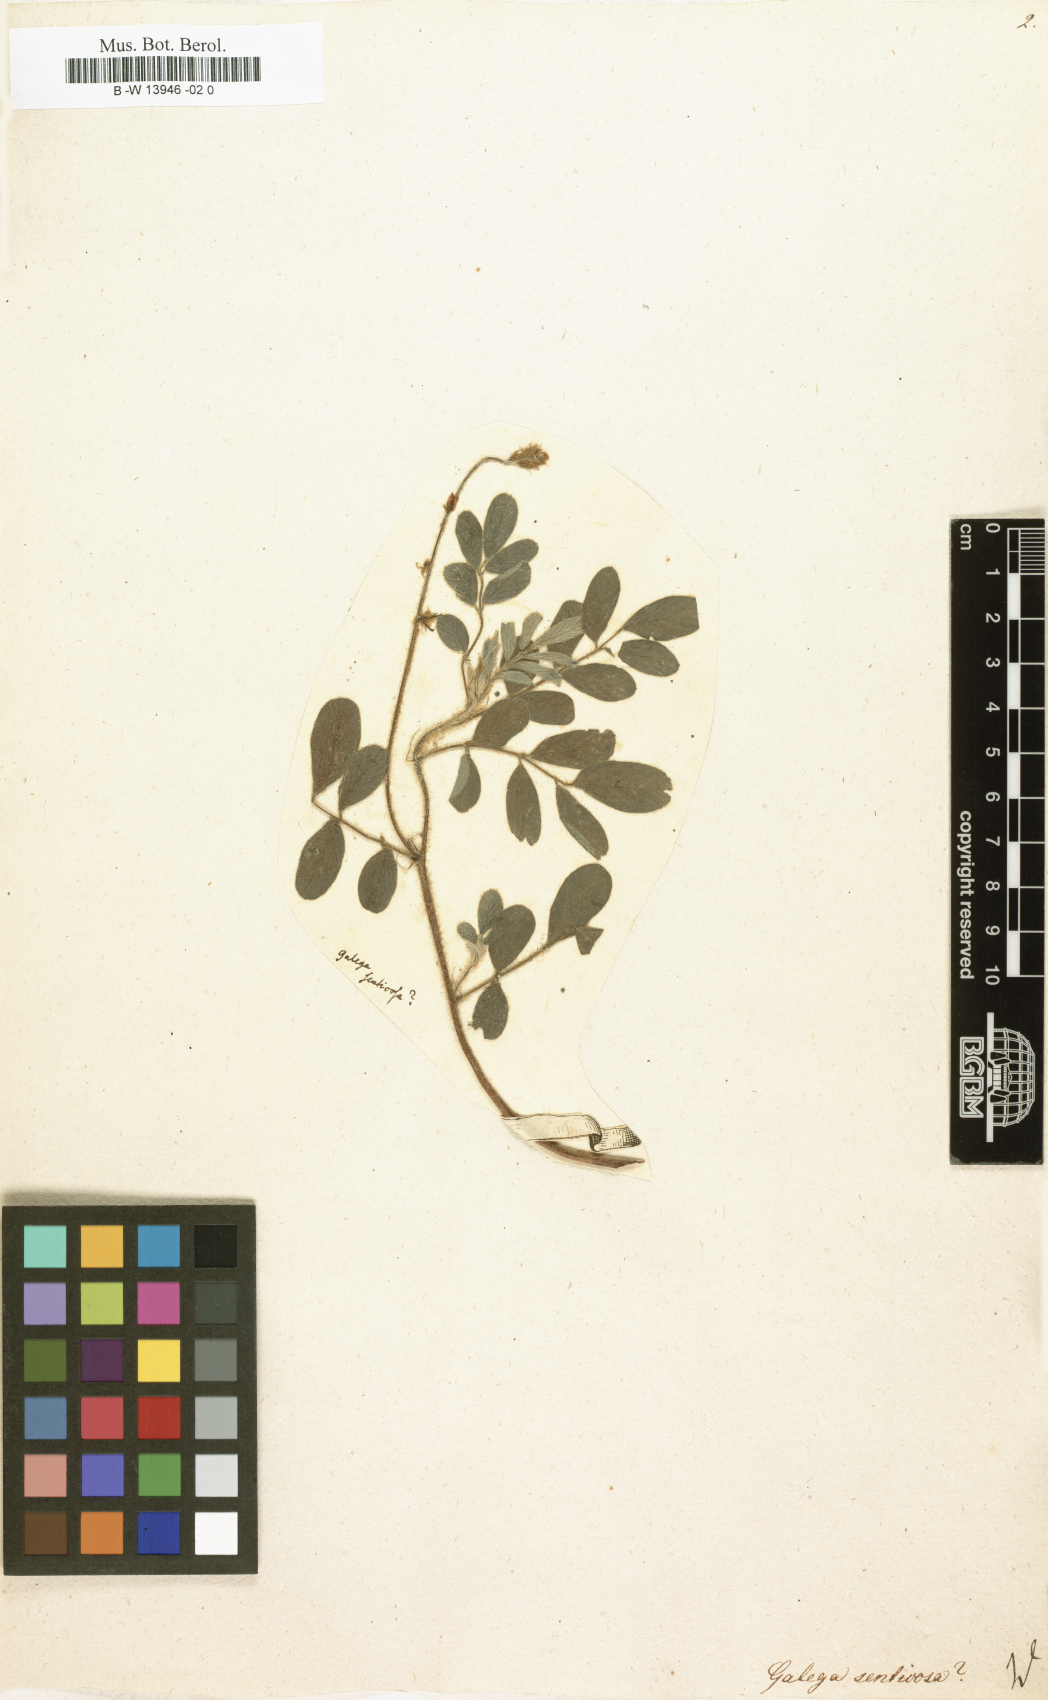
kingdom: Plantae
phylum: Tracheophyta
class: Magnoliopsida
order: Fabales
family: Fabaceae
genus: Tephrosia
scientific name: Tephrosia senticosa
